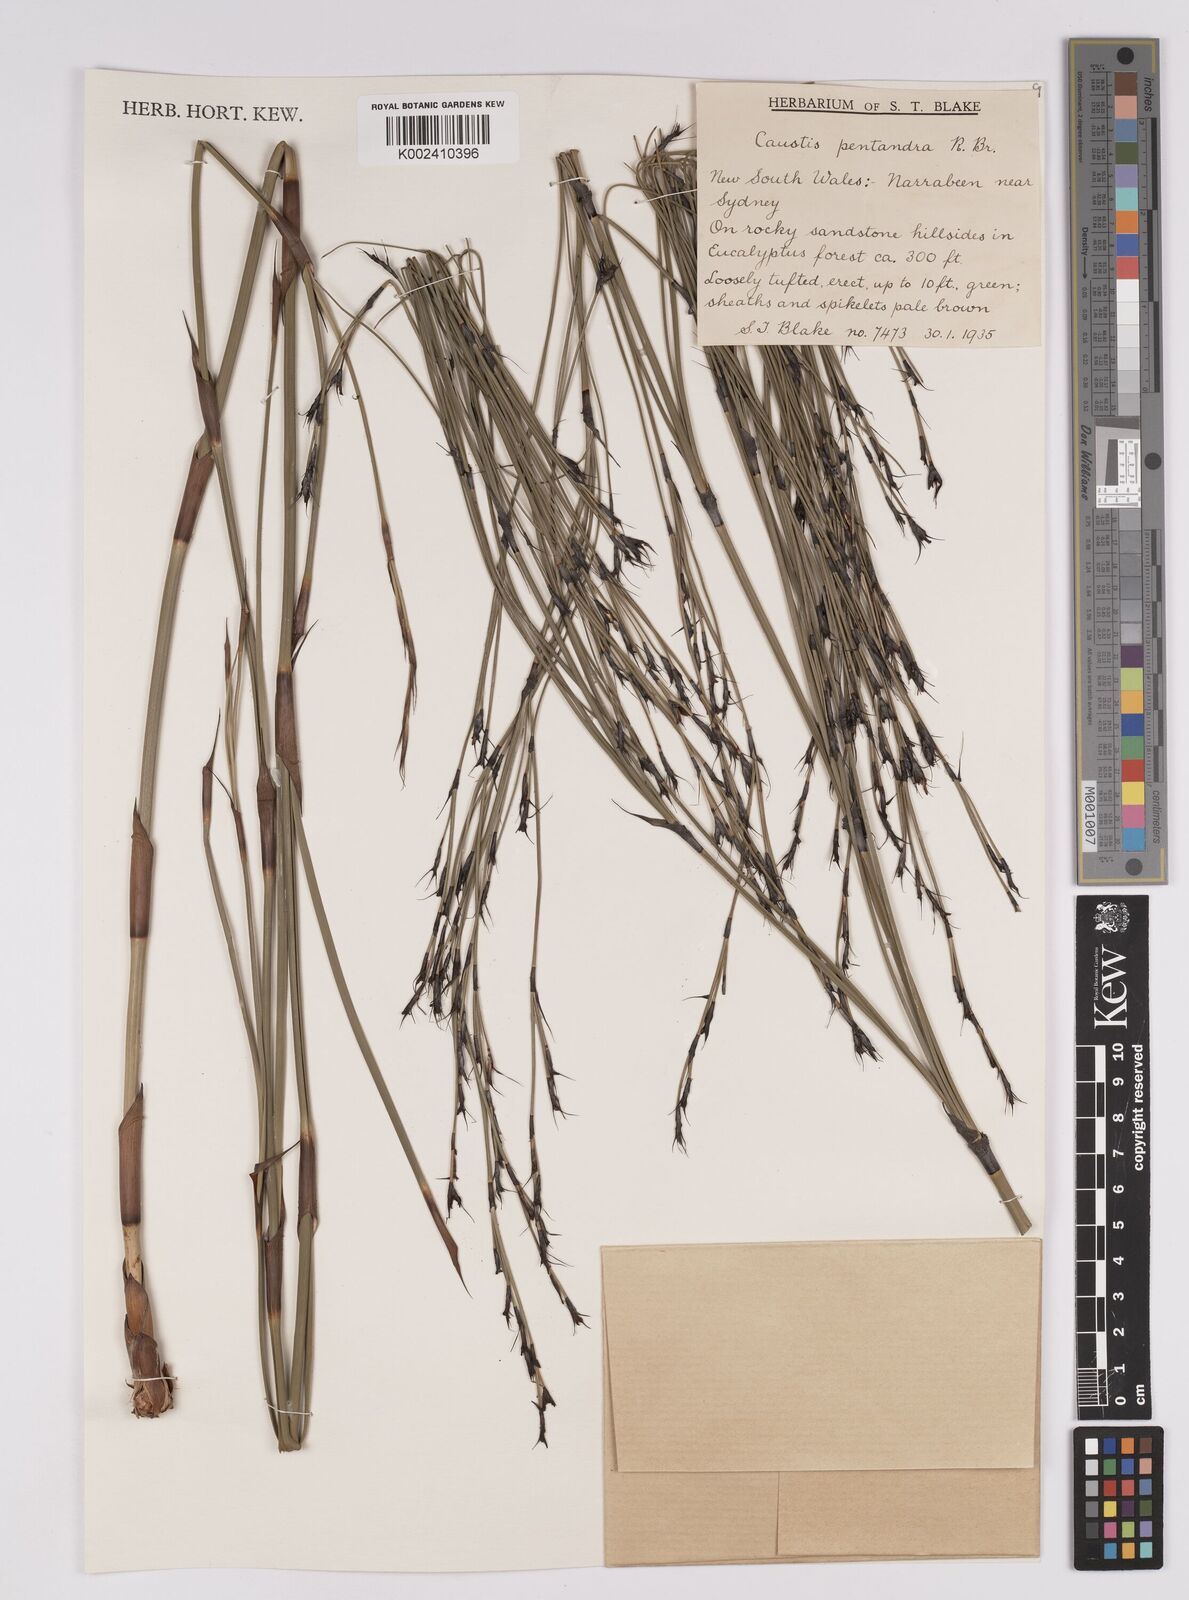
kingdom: Plantae
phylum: Tracheophyta
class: Liliopsida
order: Poales
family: Cyperaceae
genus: Caustis
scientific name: Caustis pentandra
